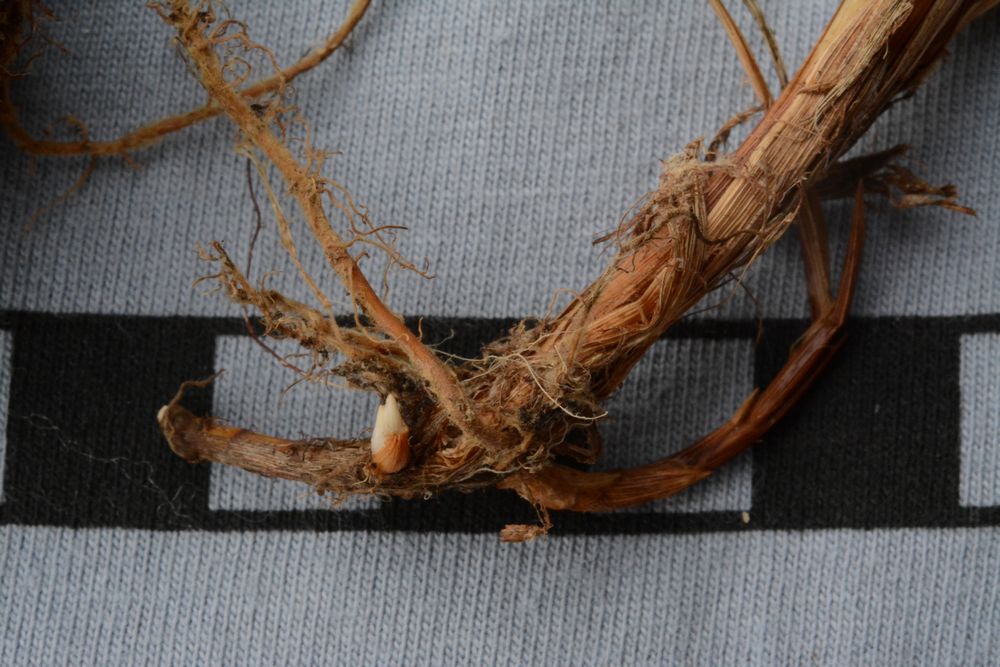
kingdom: Plantae
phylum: Tracheophyta
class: Liliopsida
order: Poales
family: Cyperaceae
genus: Carex
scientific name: Carex nigra
